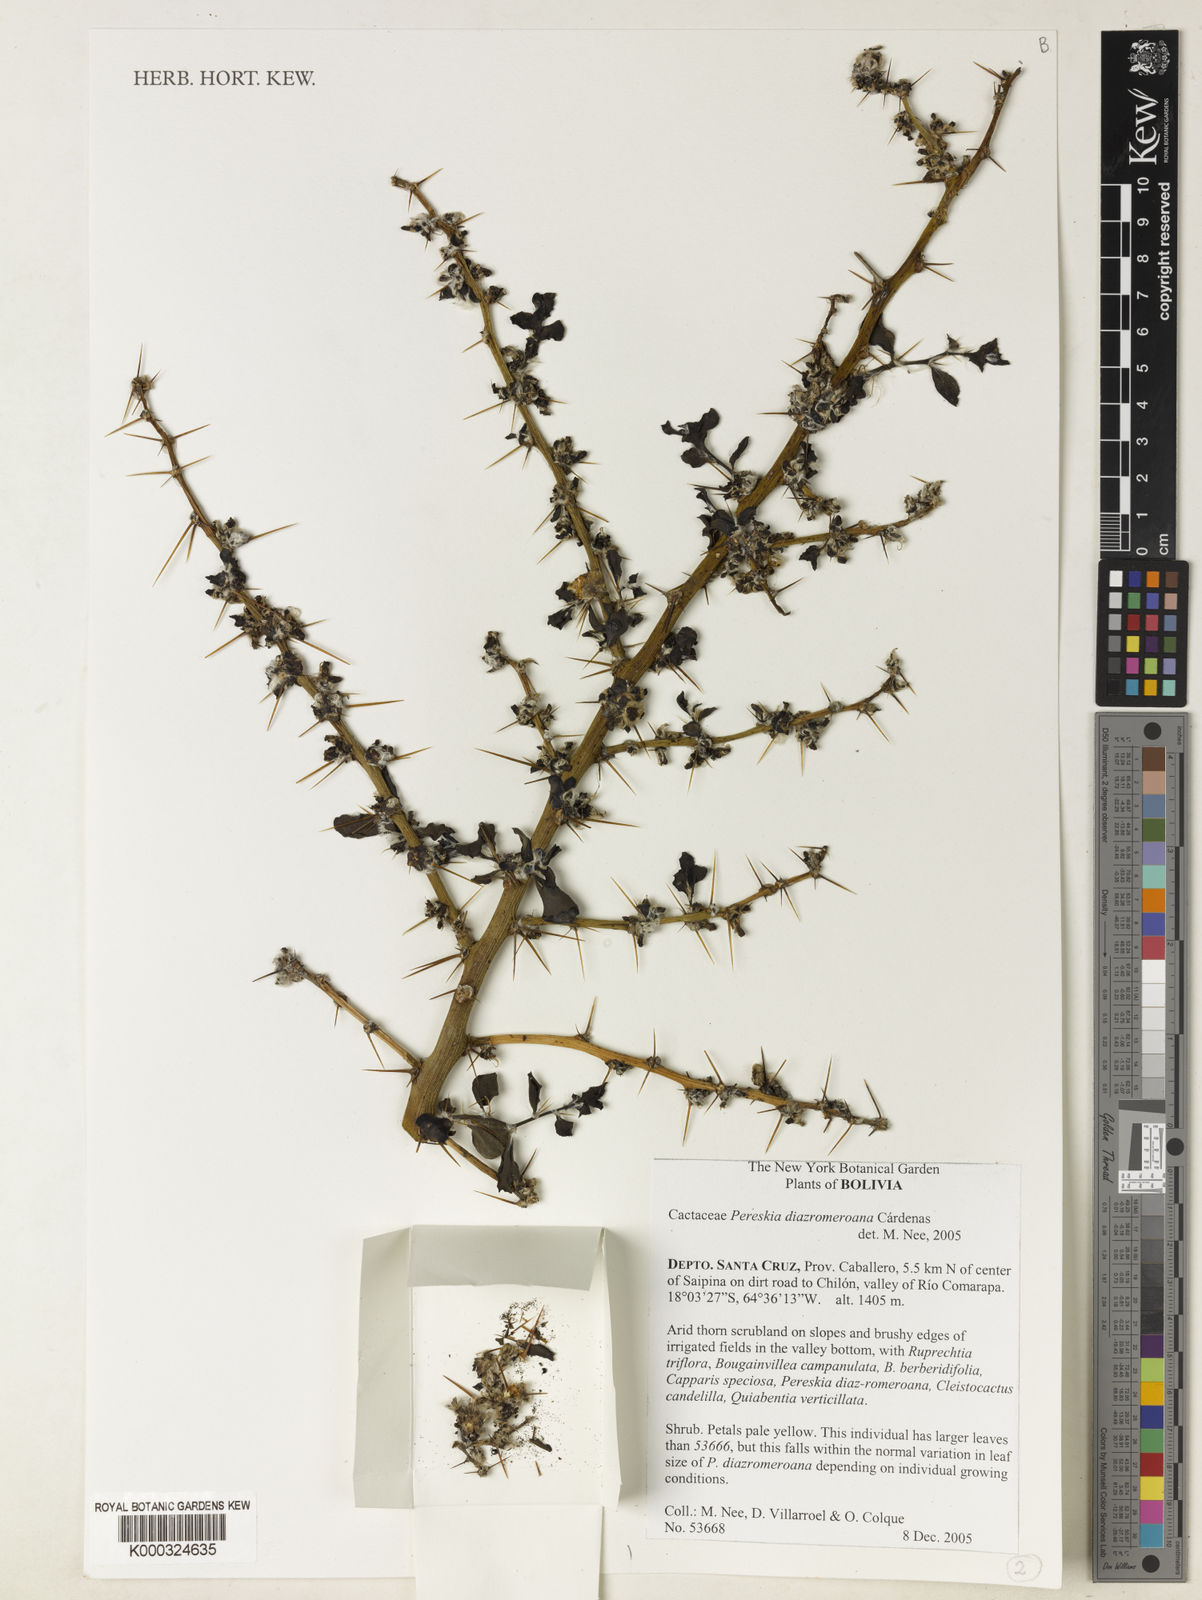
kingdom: Plantae
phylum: Tracheophyta
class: Magnoliopsida
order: Caryophyllales
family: Cactaceae
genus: Pereskia
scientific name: Pereskia diaz-romeroana
